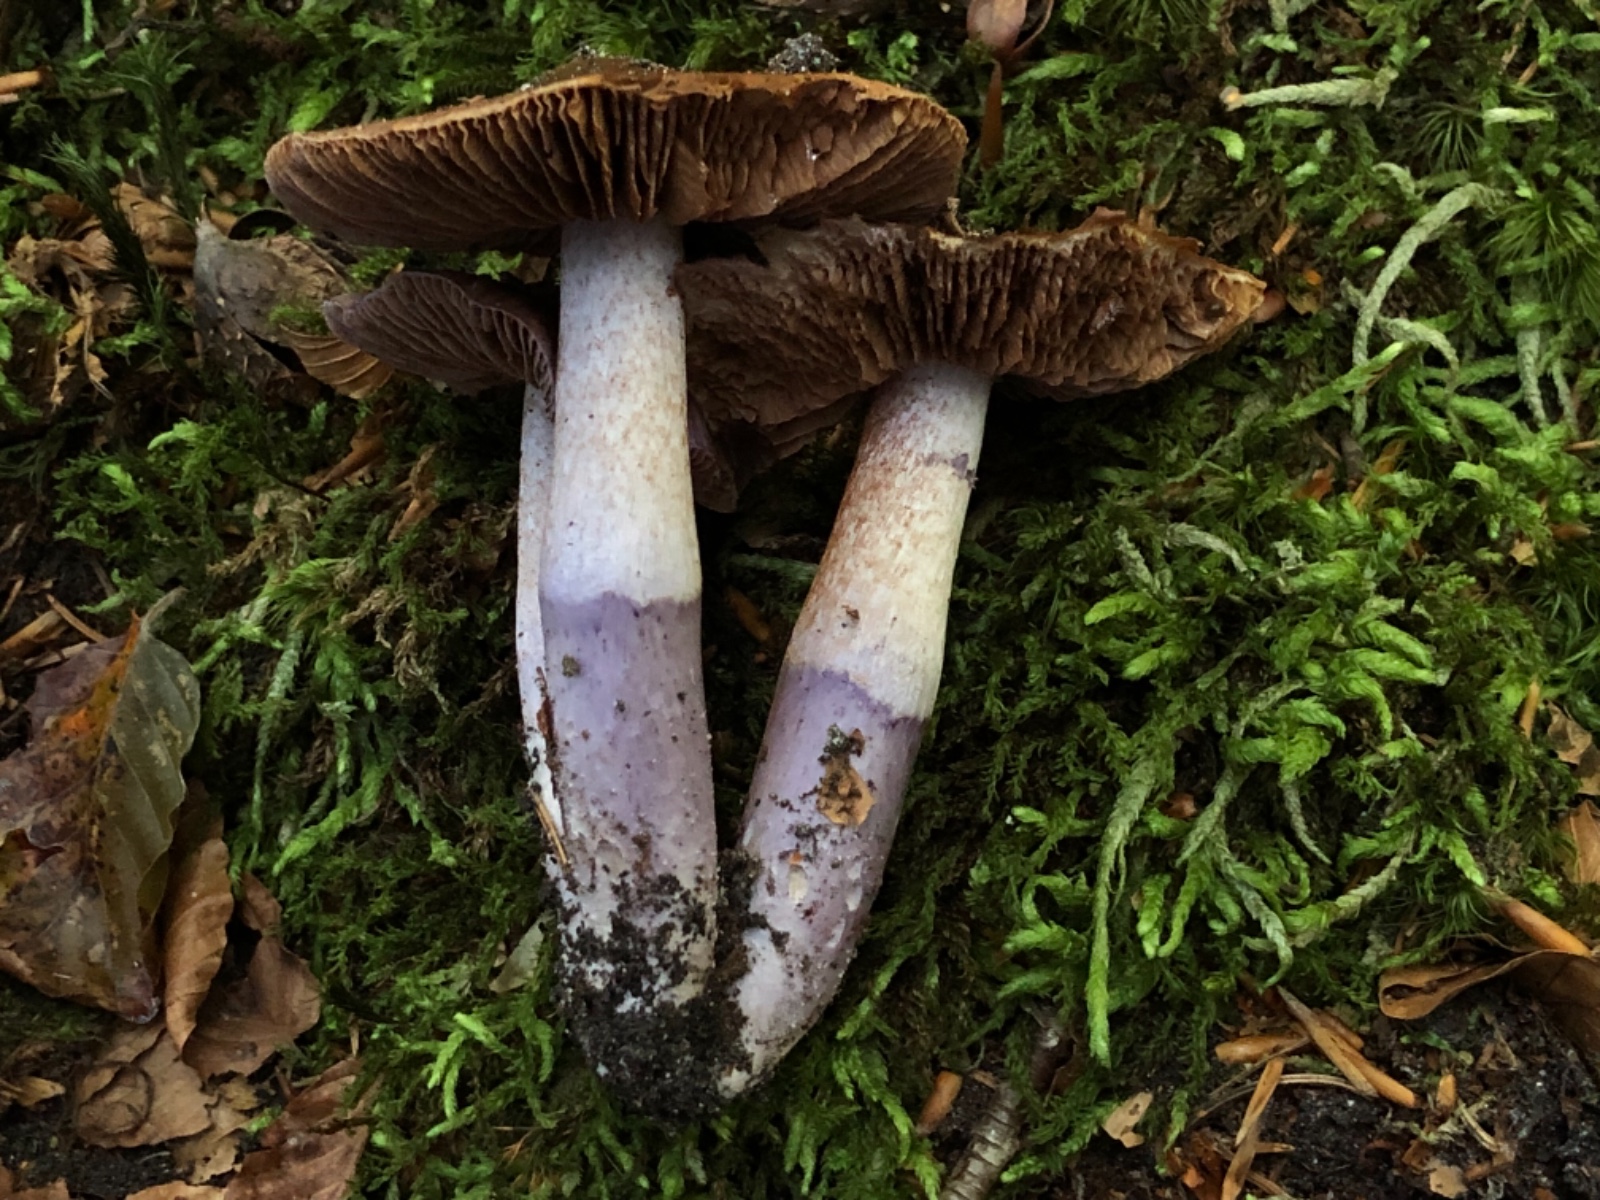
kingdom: Fungi
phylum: Basidiomycota
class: Agaricomycetes
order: Agaricales
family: Cortinariaceae
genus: Cortinarius
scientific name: Cortinarius elatior
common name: høj slørhat
